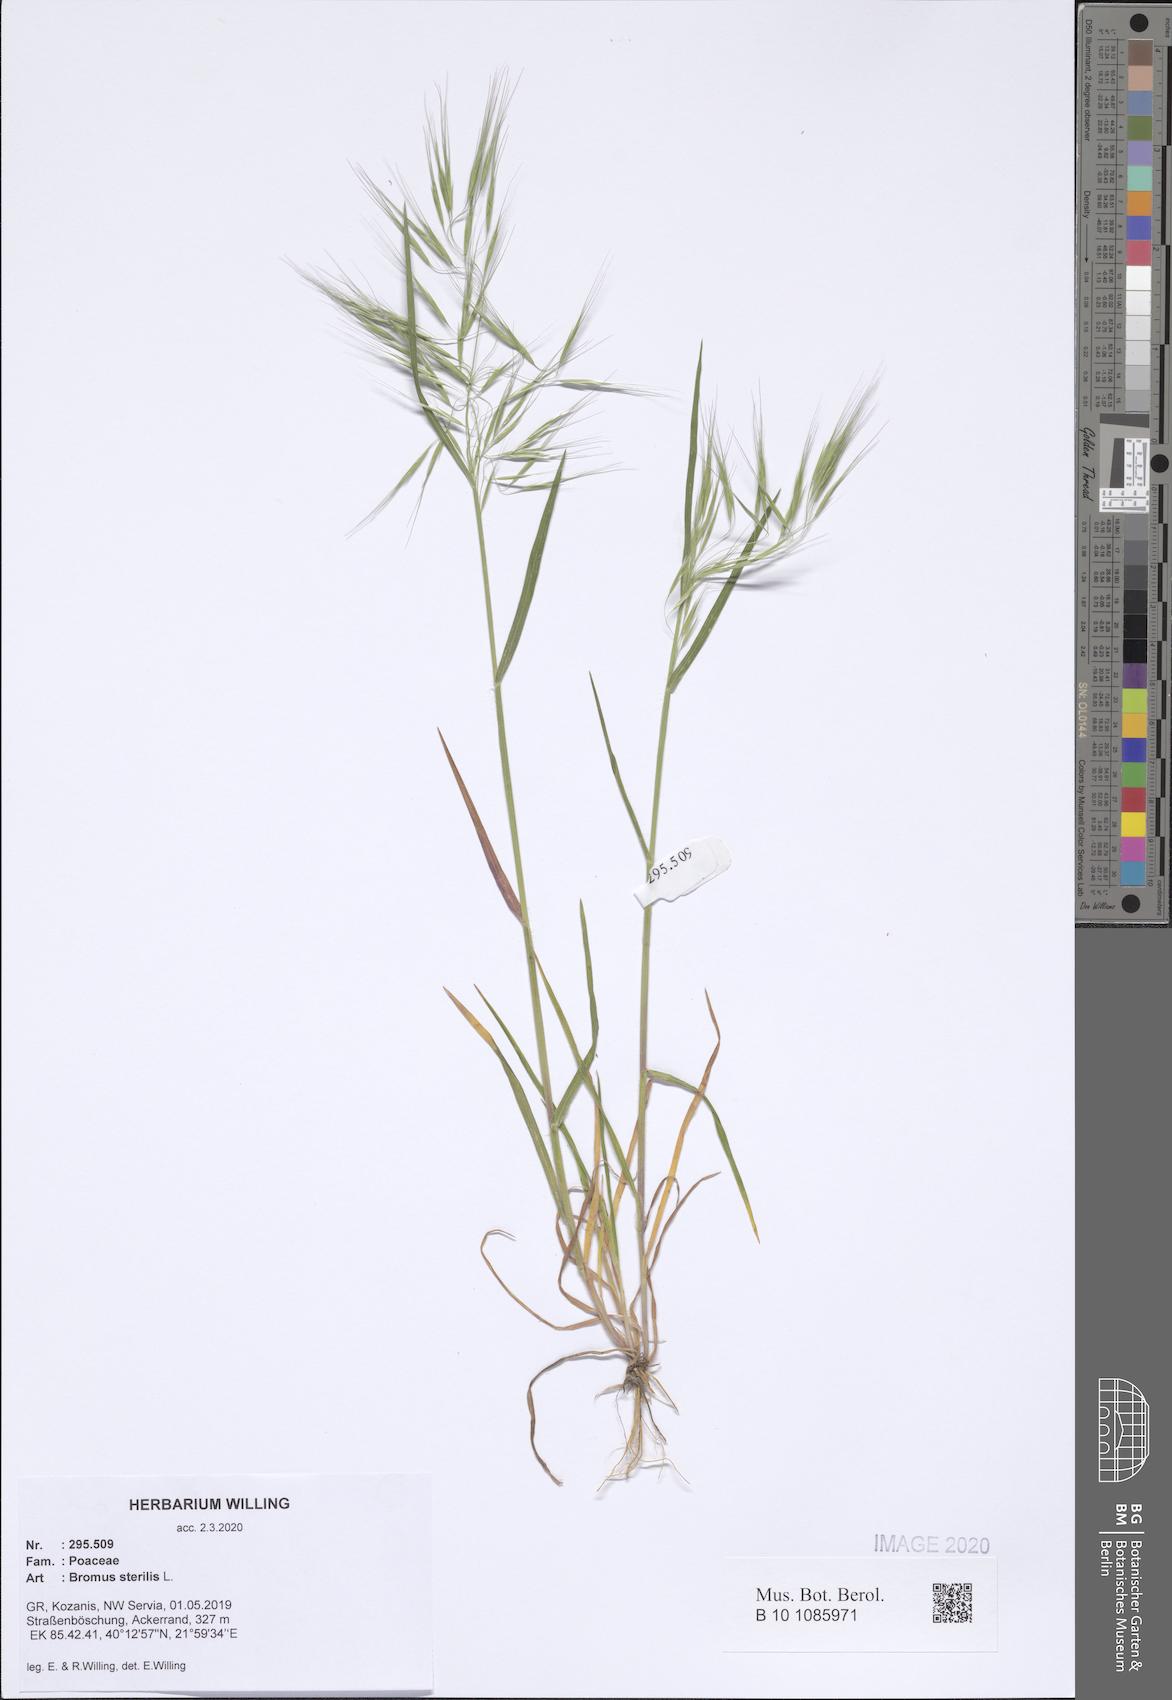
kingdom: Plantae
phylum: Tracheophyta
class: Liliopsida
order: Poales
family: Poaceae
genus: Bromus
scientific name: Bromus sterilis
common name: Poverty brome
